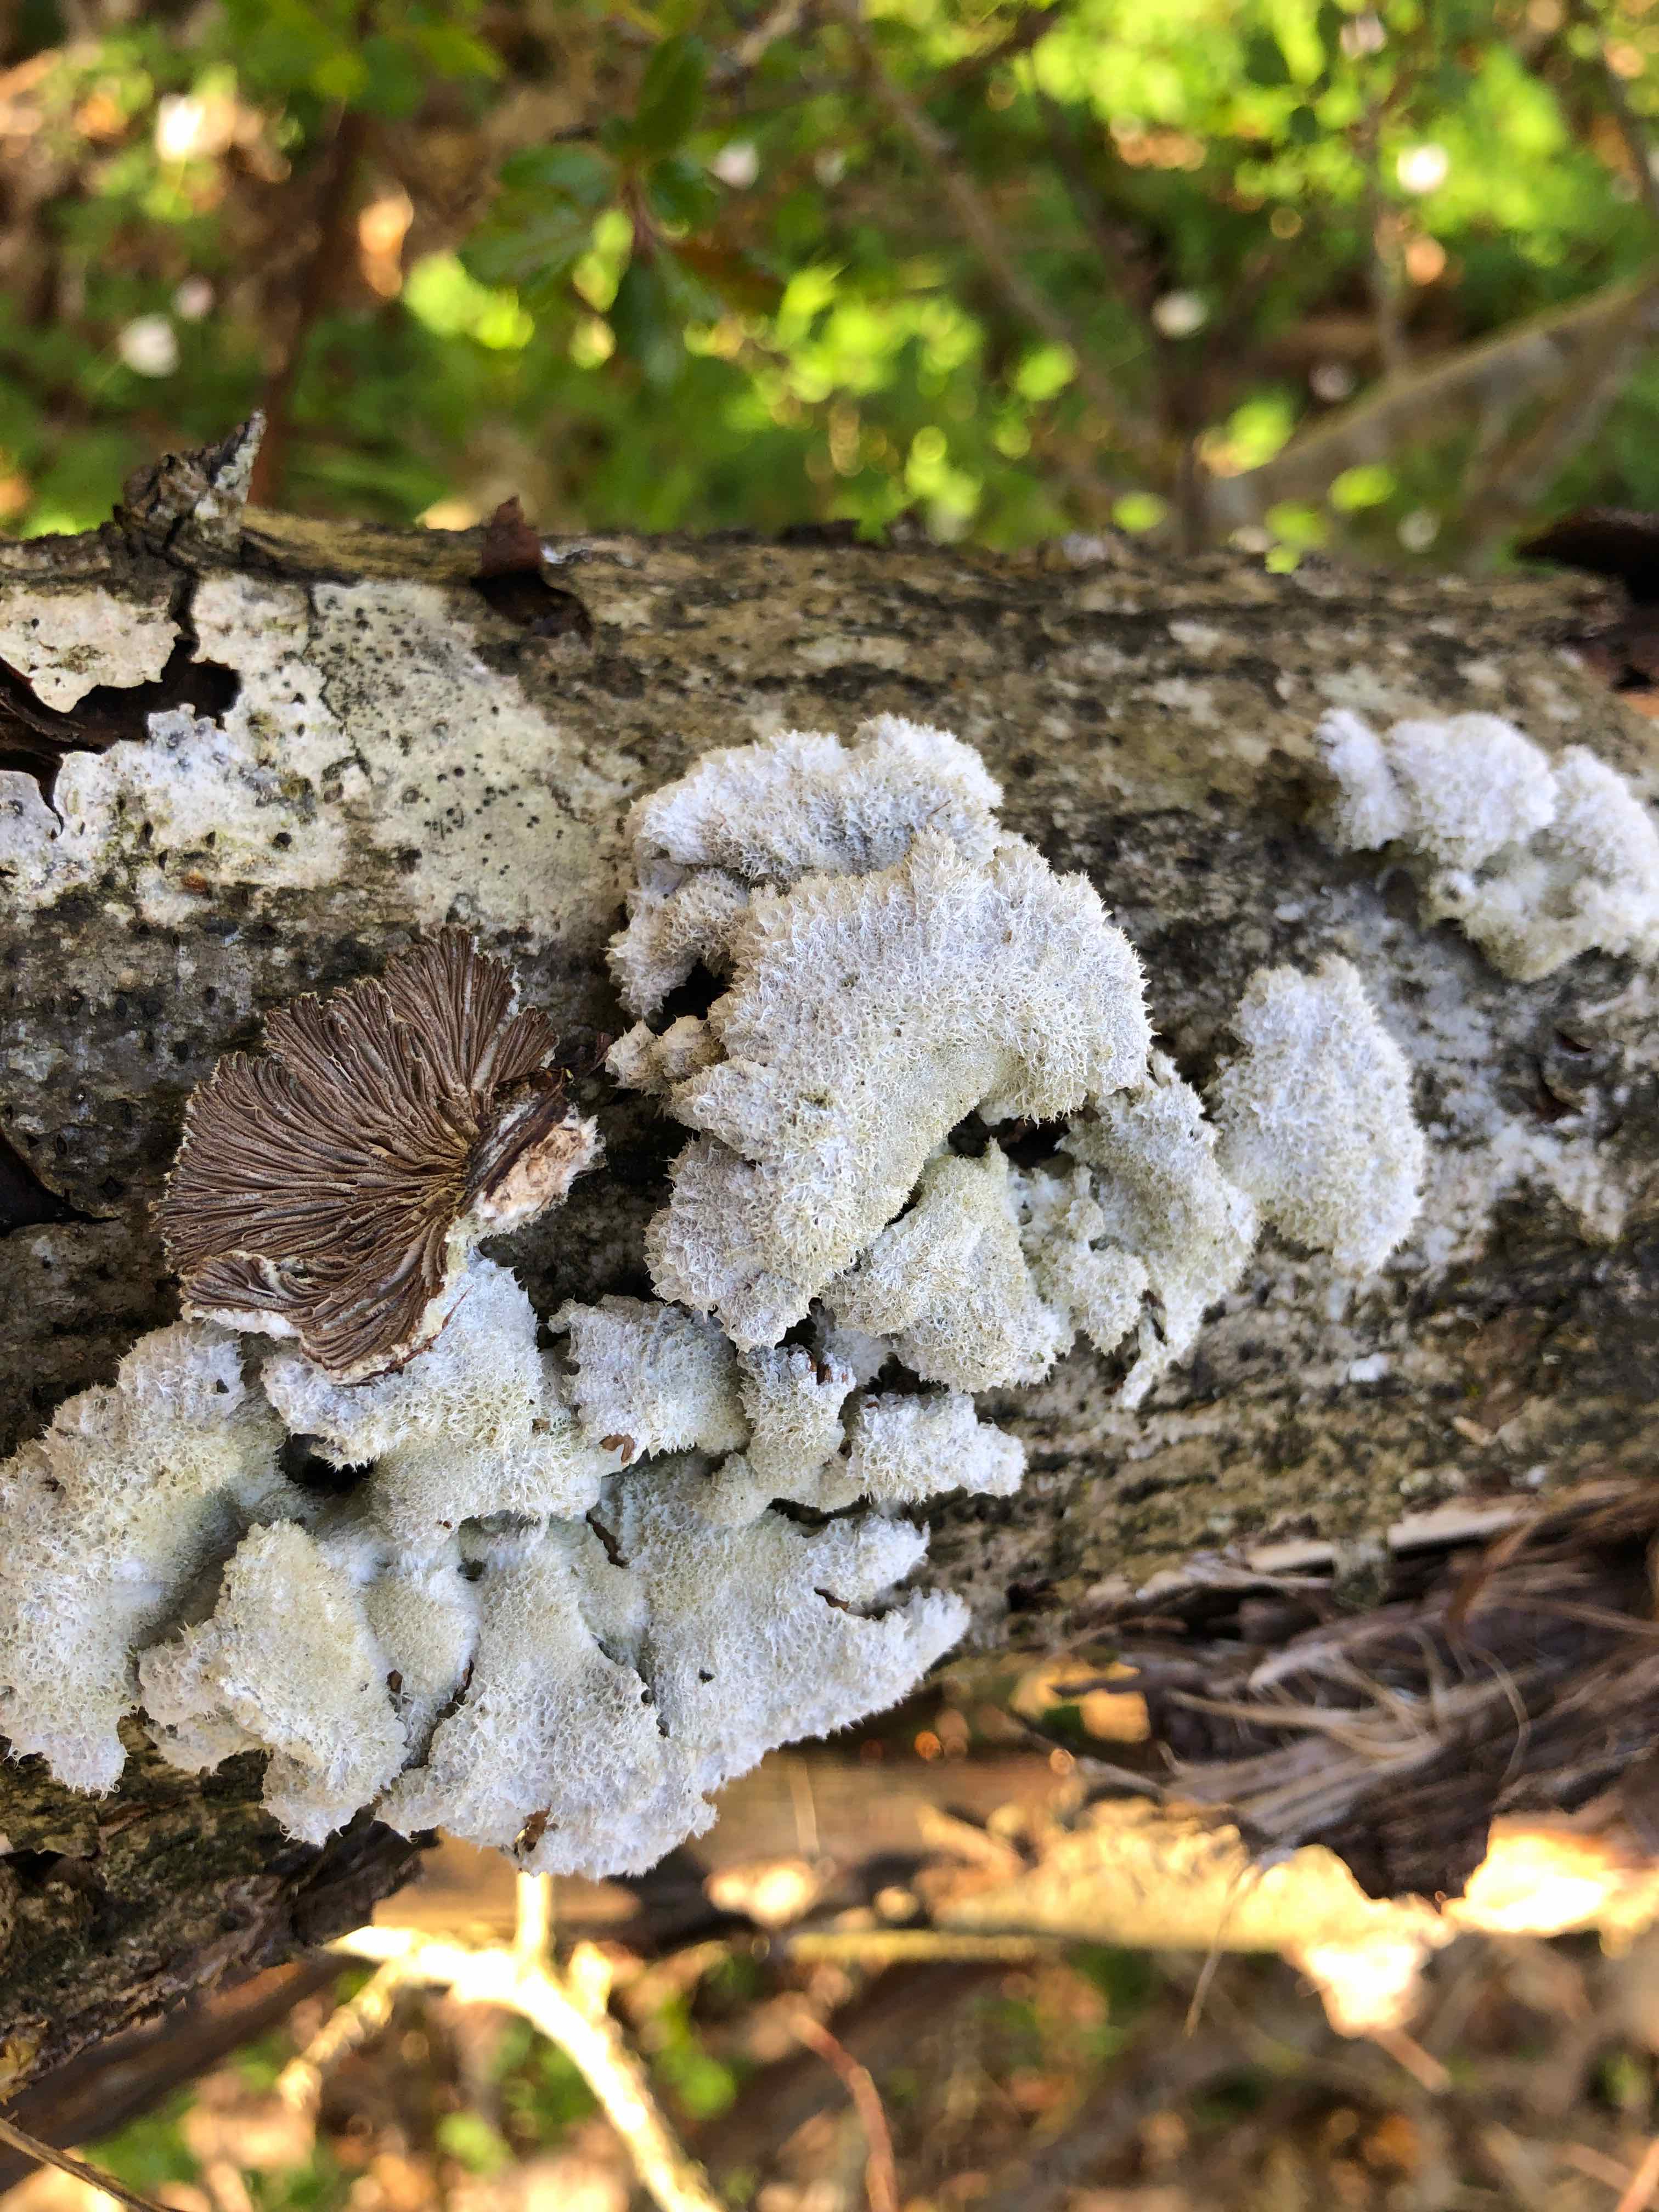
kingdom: Fungi
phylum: Basidiomycota
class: Agaricomycetes
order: Agaricales
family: Schizophyllaceae
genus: Schizophyllum
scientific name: Schizophyllum commune
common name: kløvblad
